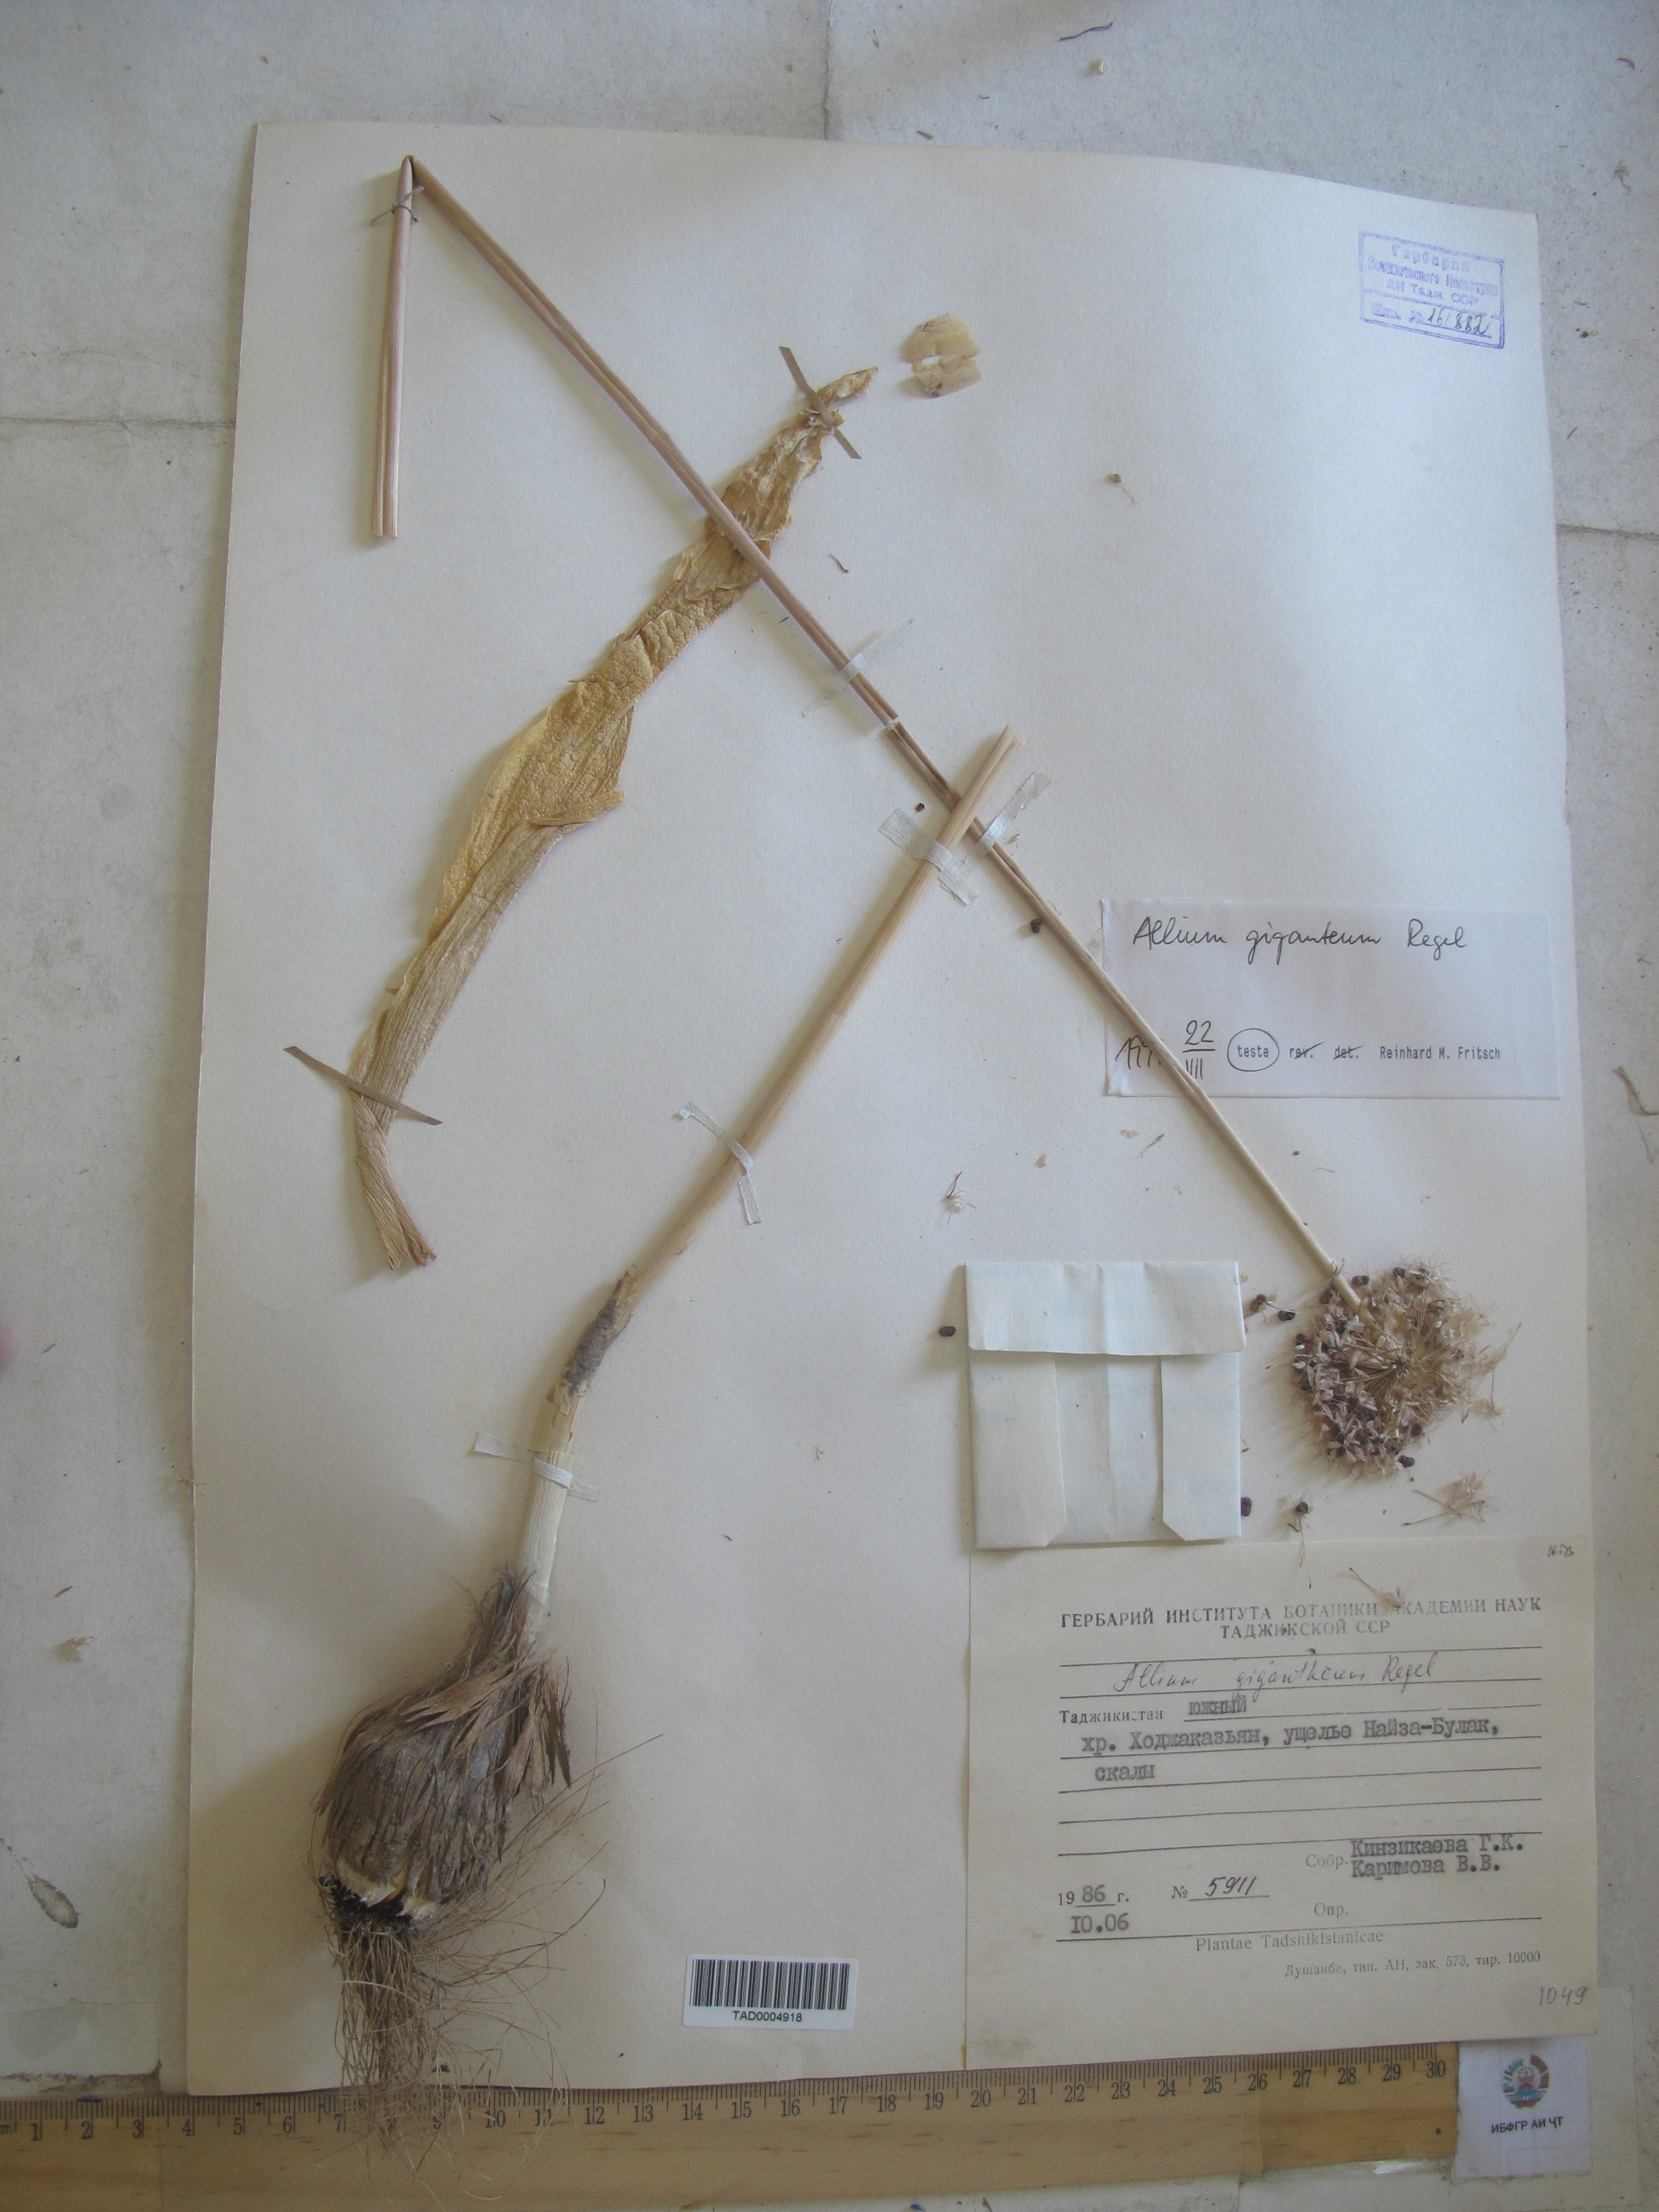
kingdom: Plantae
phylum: Tracheophyta
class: Liliopsida
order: Asparagales
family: Amaryllidaceae
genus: Allium
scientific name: Allium giganteum
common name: Giant onion
